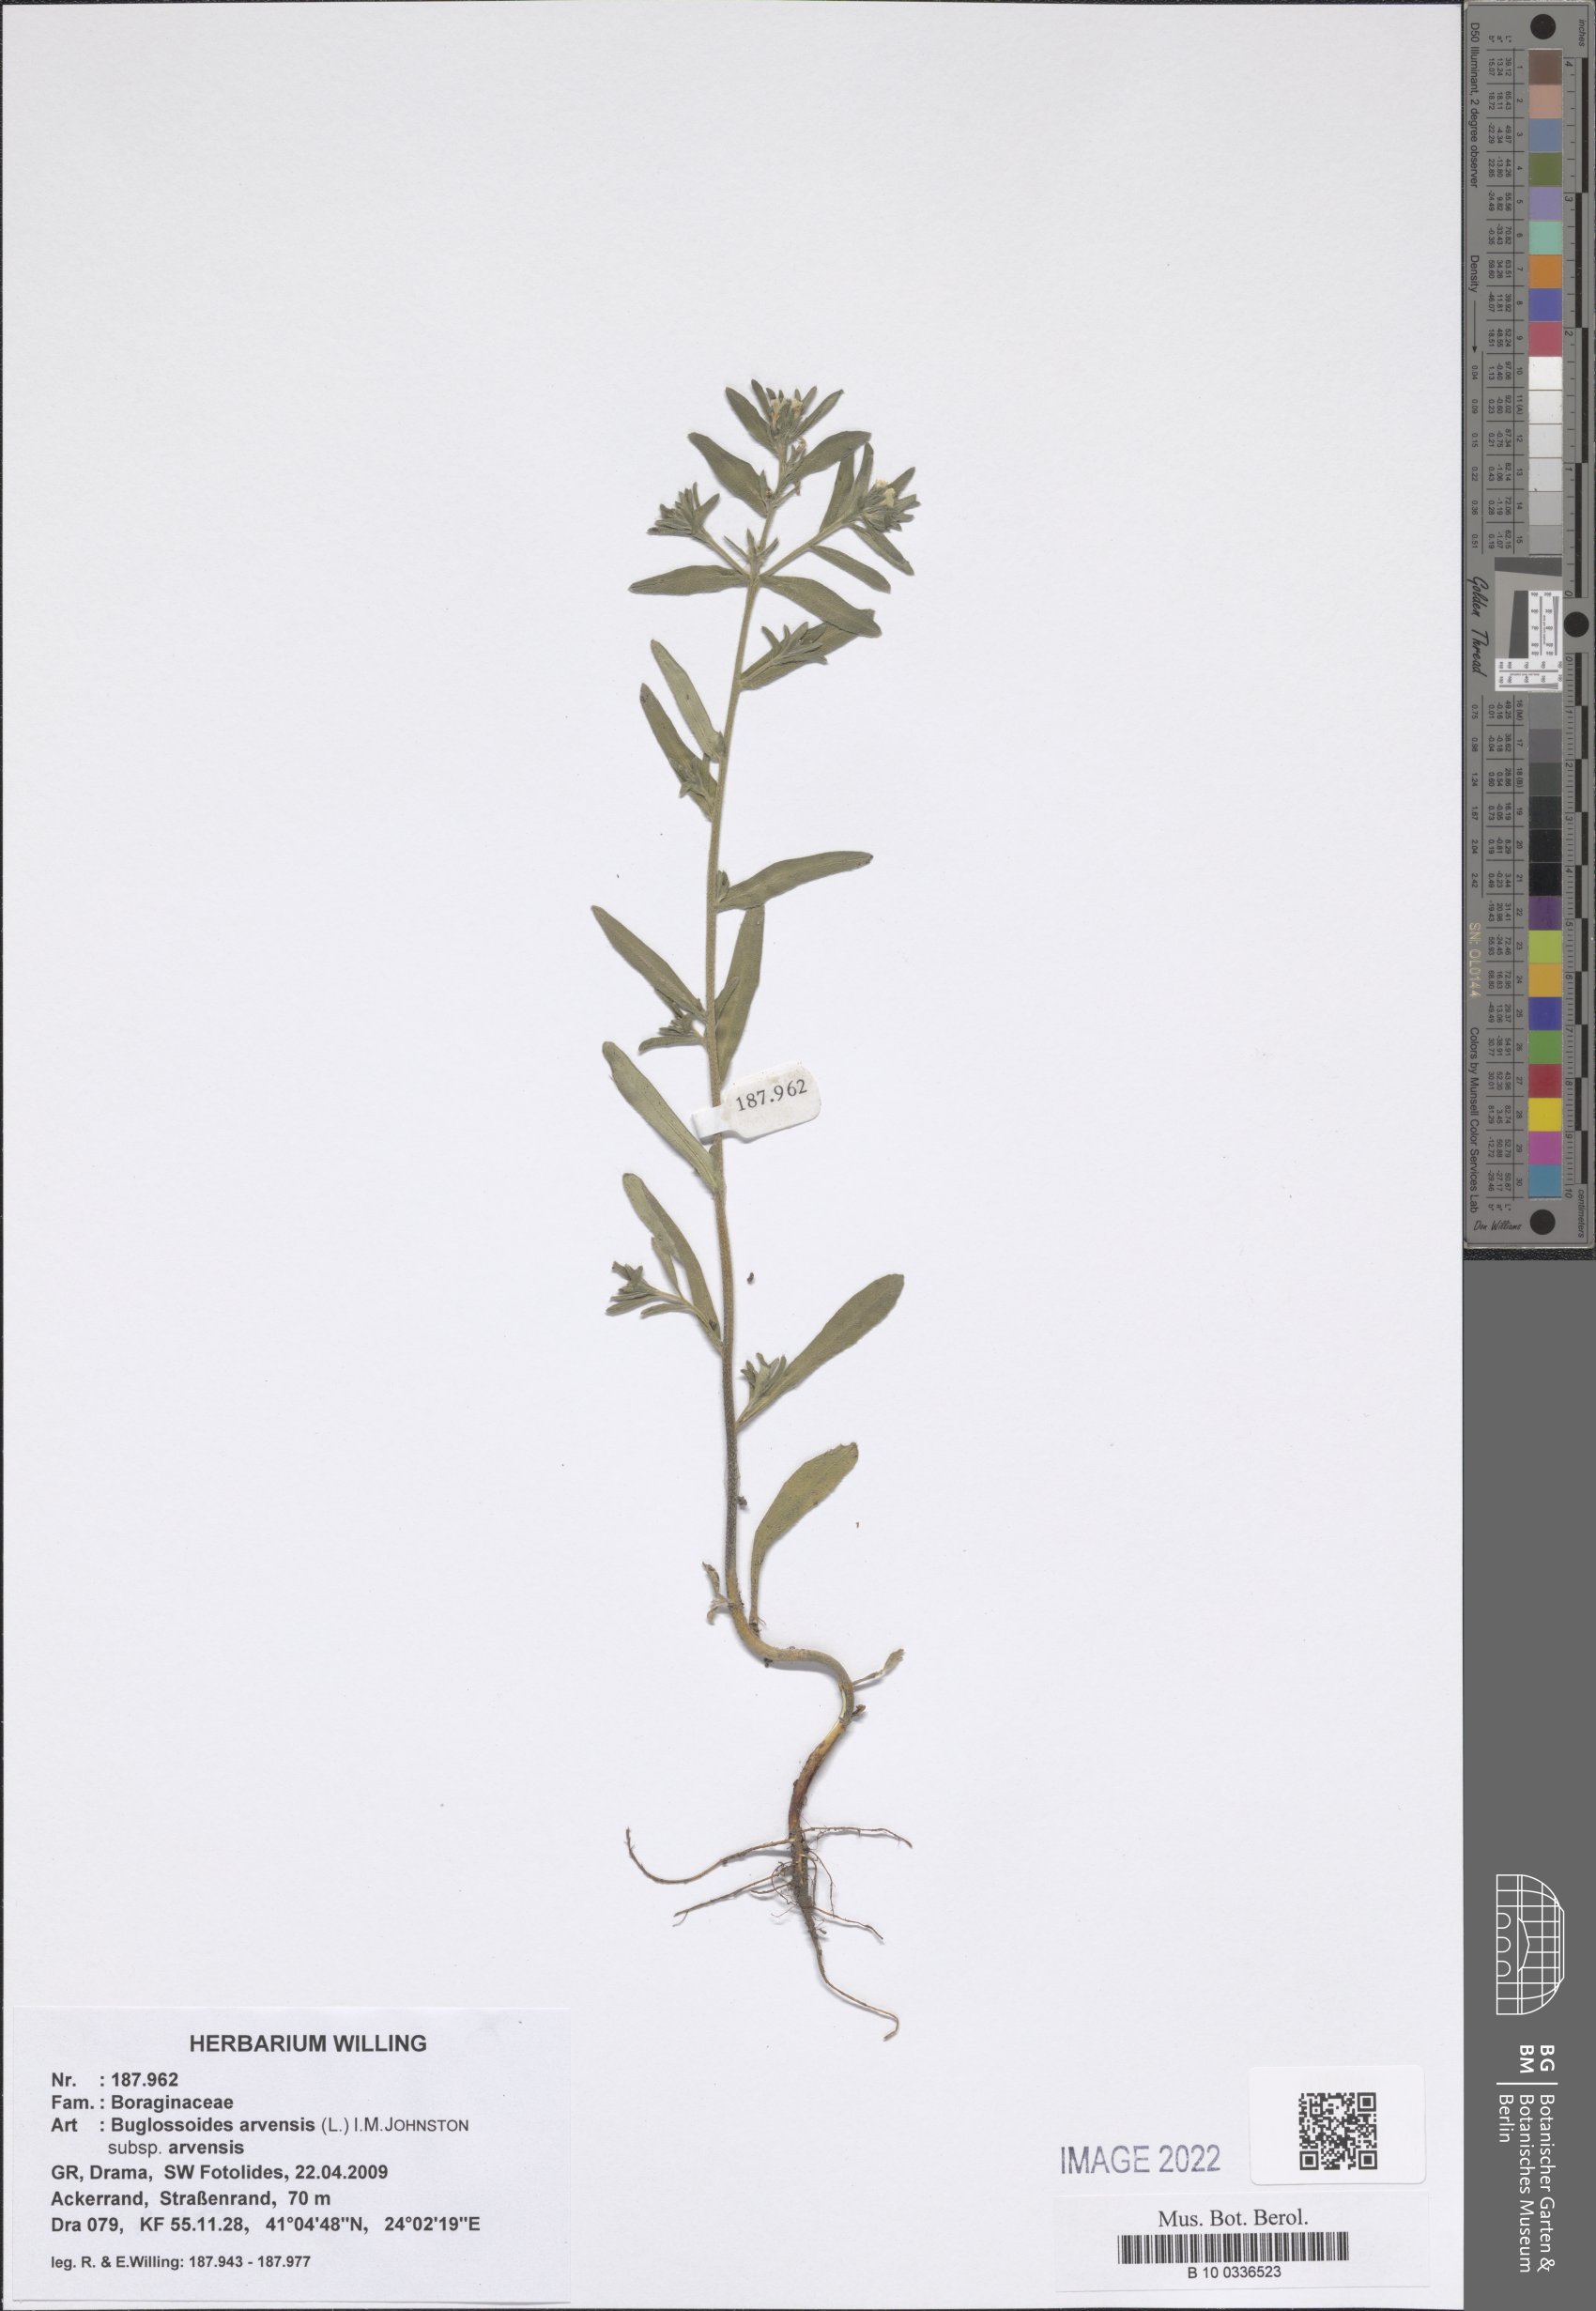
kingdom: Plantae
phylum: Tracheophyta
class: Magnoliopsida
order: Boraginales
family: Boraginaceae
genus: Buglossoides
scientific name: Buglossoides arvensis
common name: Corn gromwell
